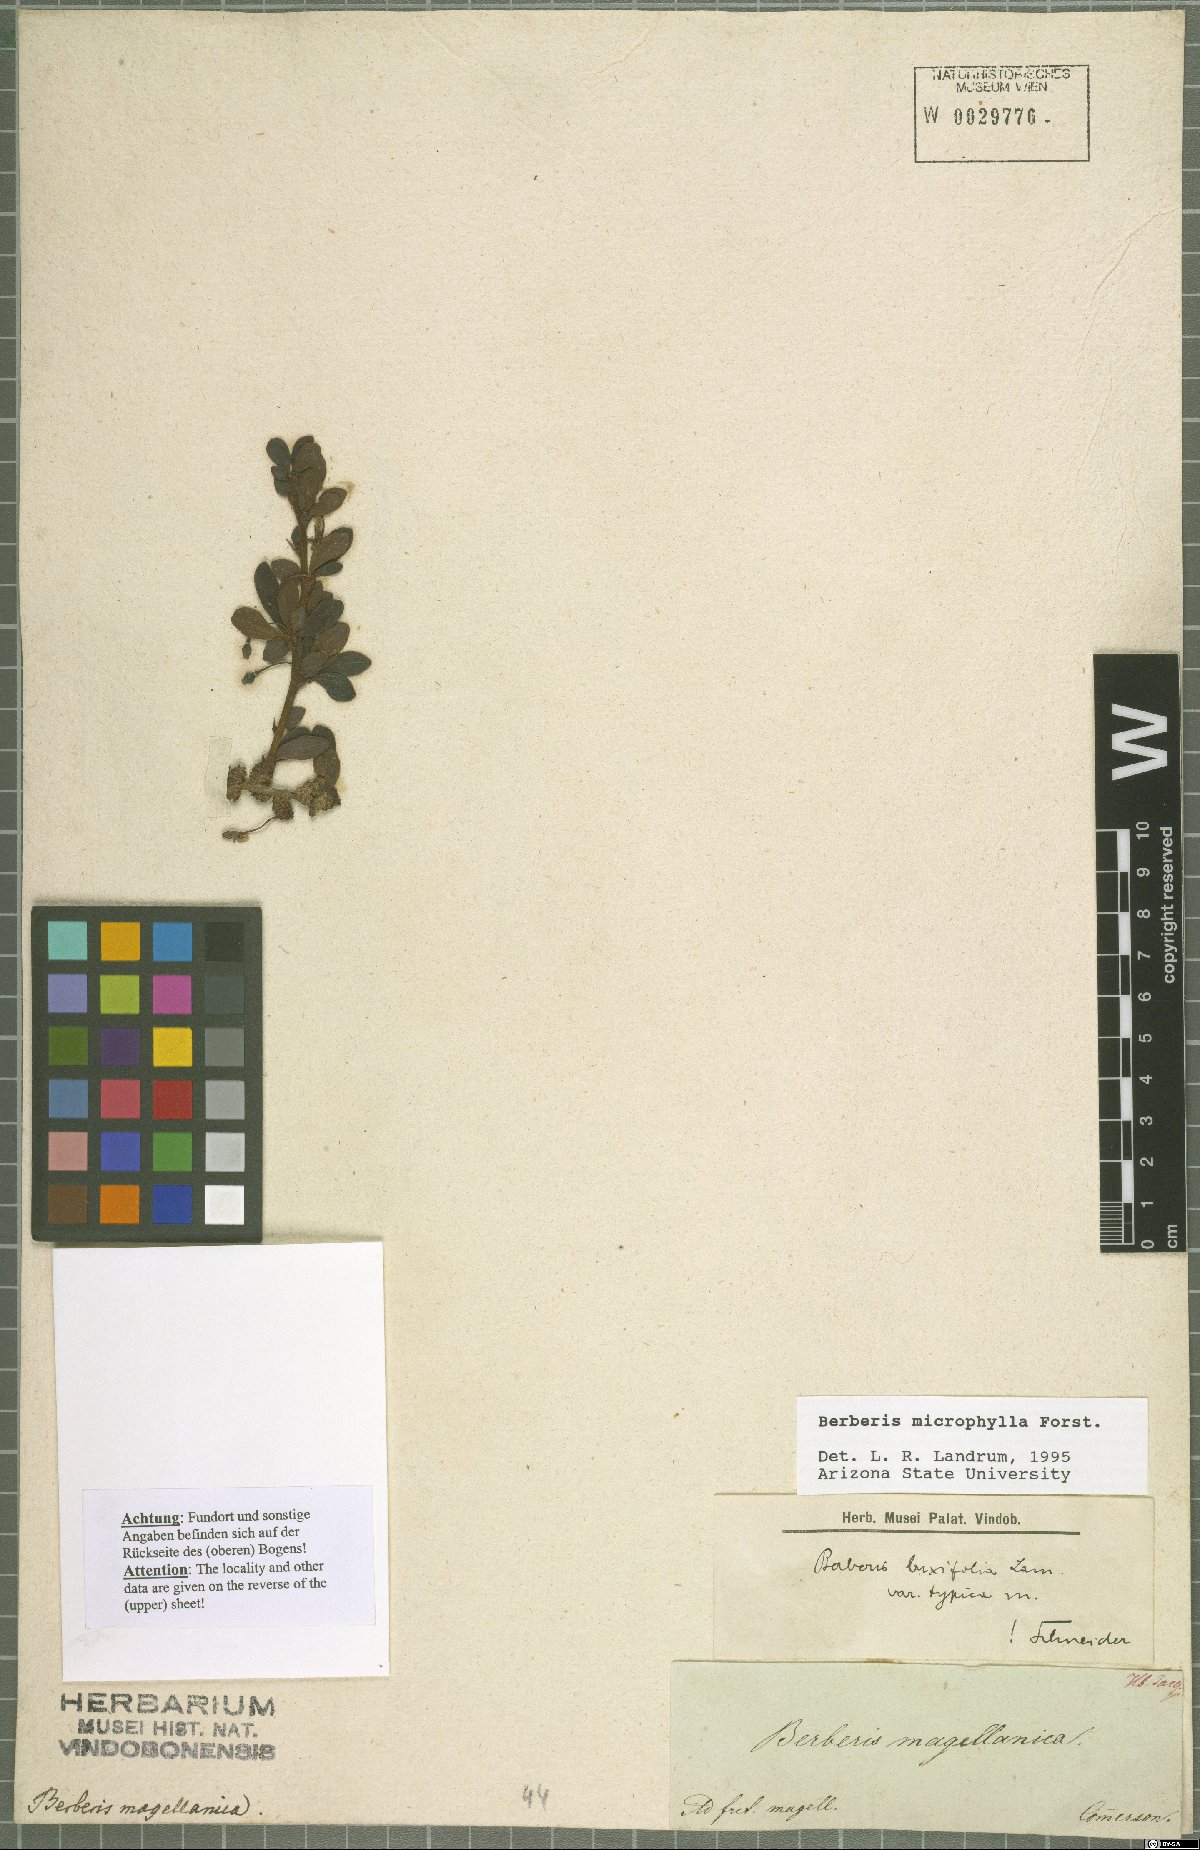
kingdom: Plantae
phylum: Tracheophyta
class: Magnoliopsida
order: Ranunculales
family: Berberidaceae
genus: Berberis
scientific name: Berberis microphylla
